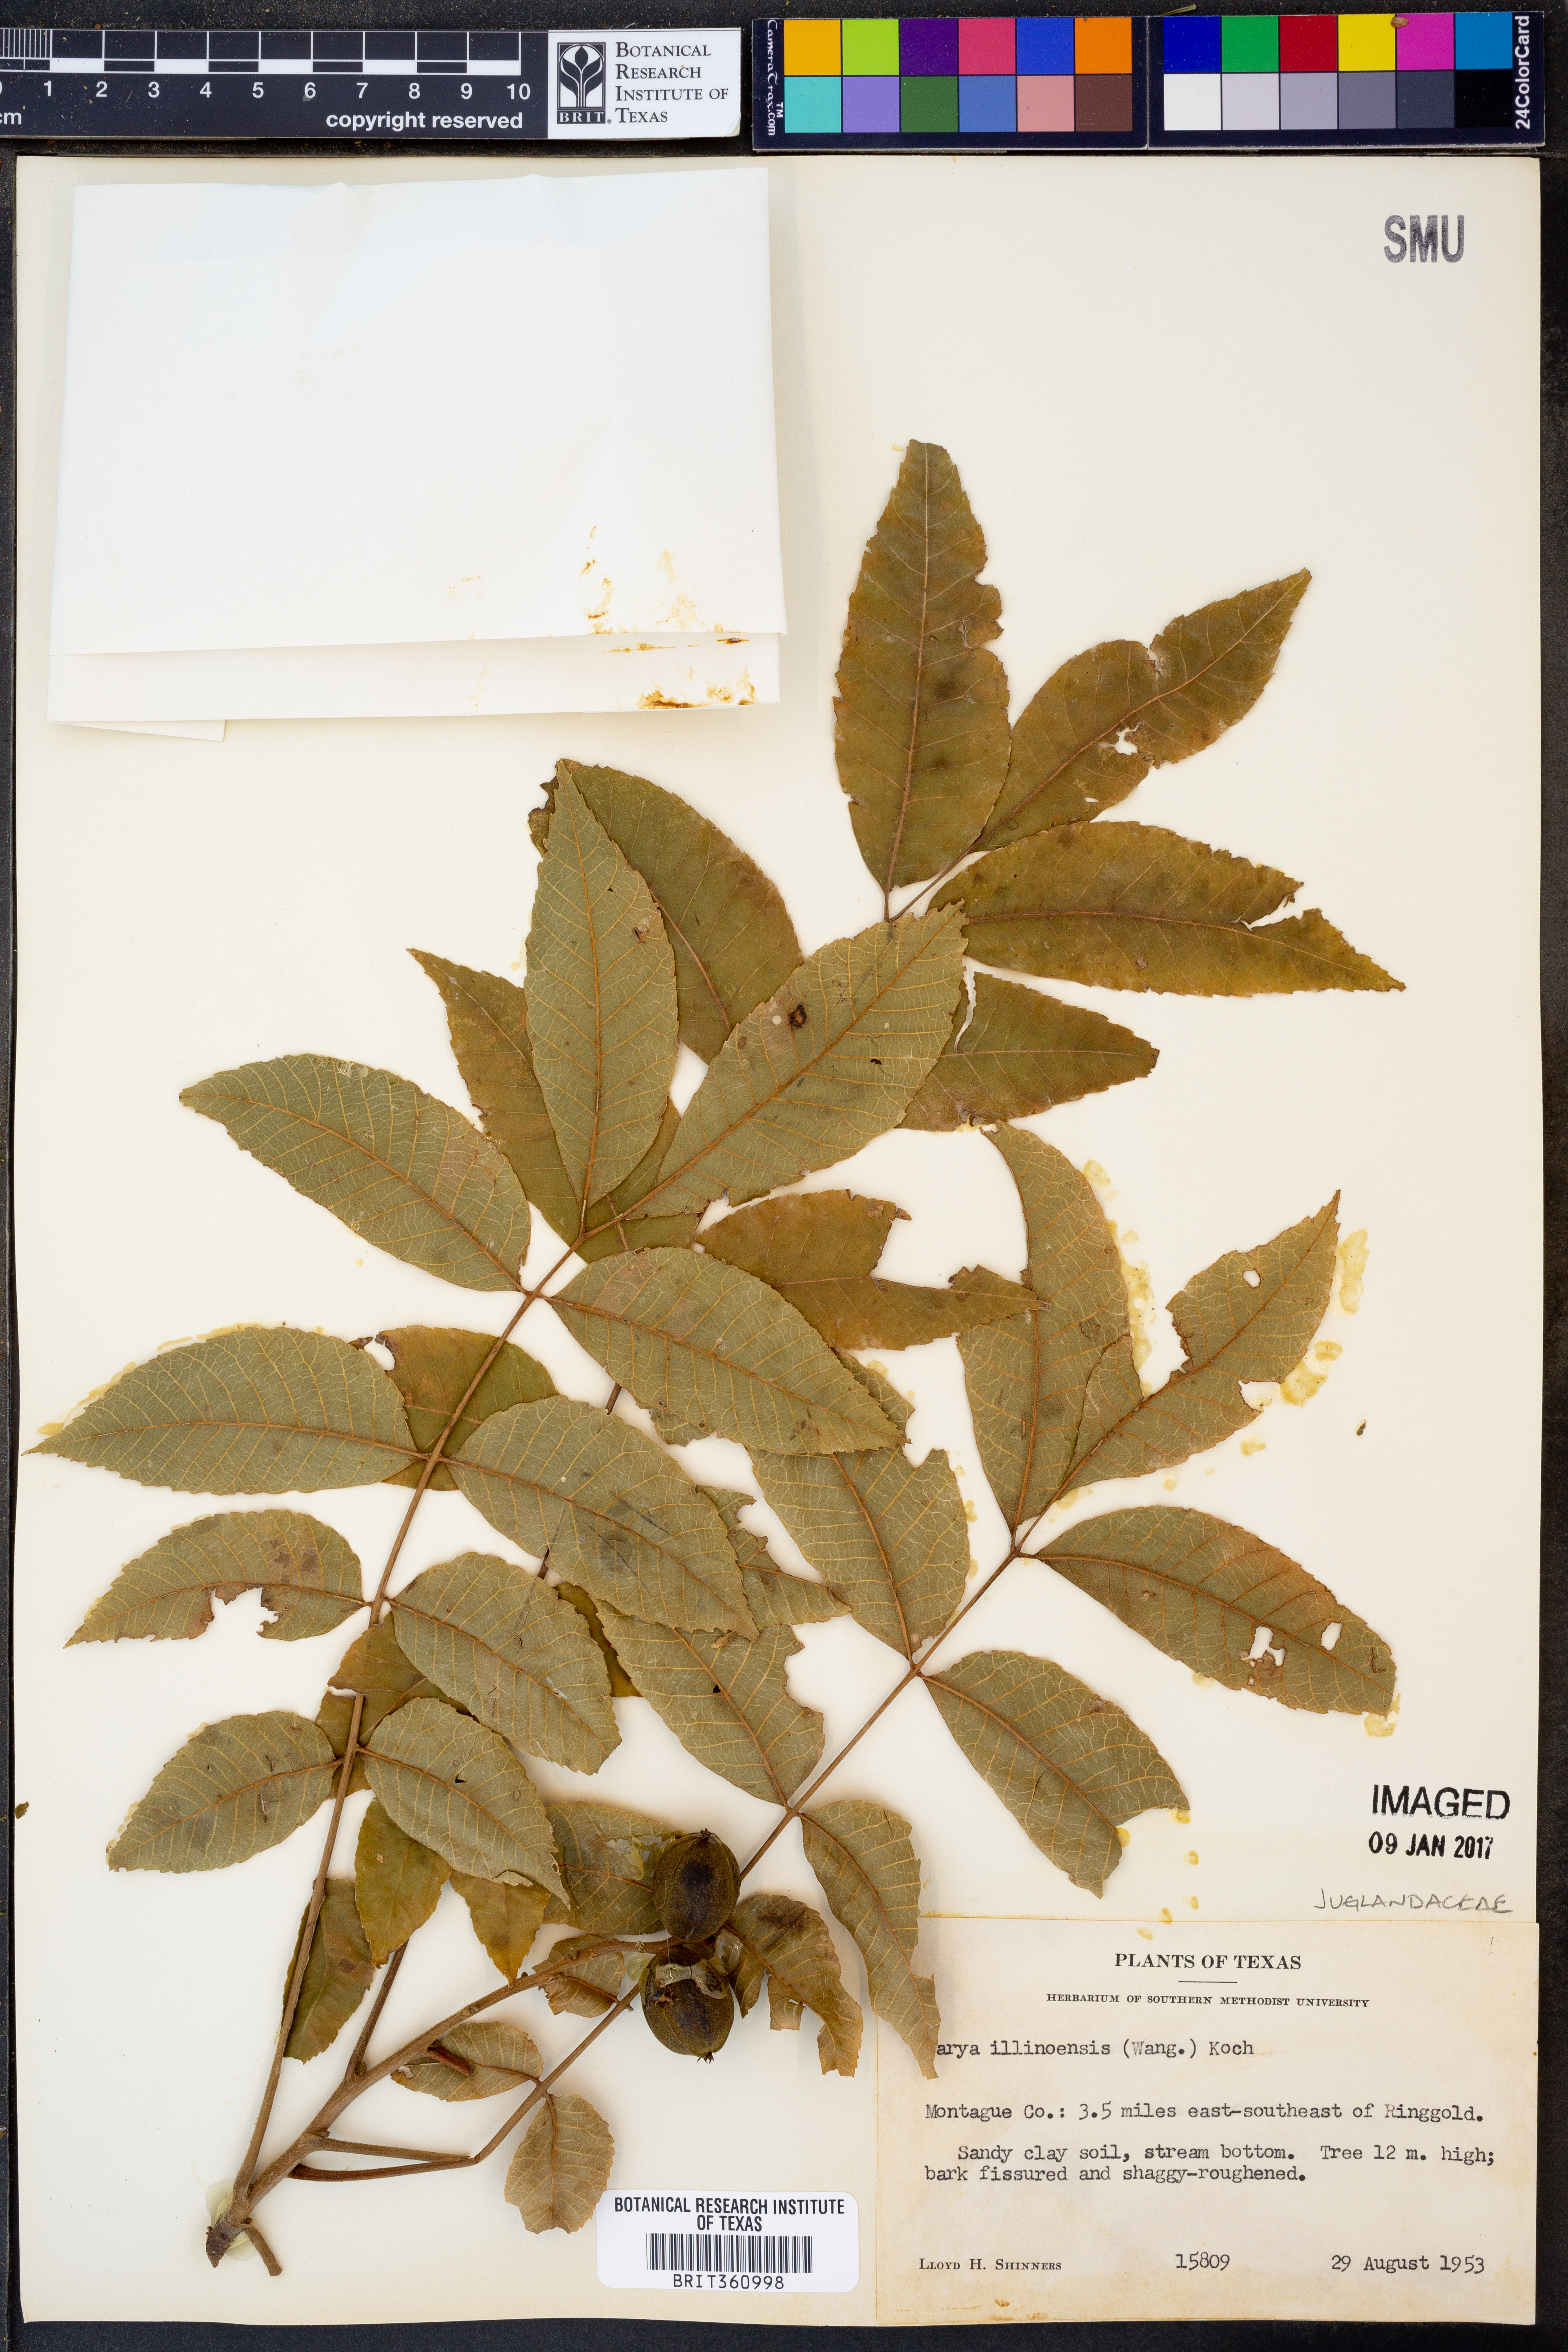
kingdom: Plantae
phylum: Tracheophyta
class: Magnoliopsida
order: Fagales
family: Juglandaceae
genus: Carya
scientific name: Carya illinoinensis
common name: Pecan
